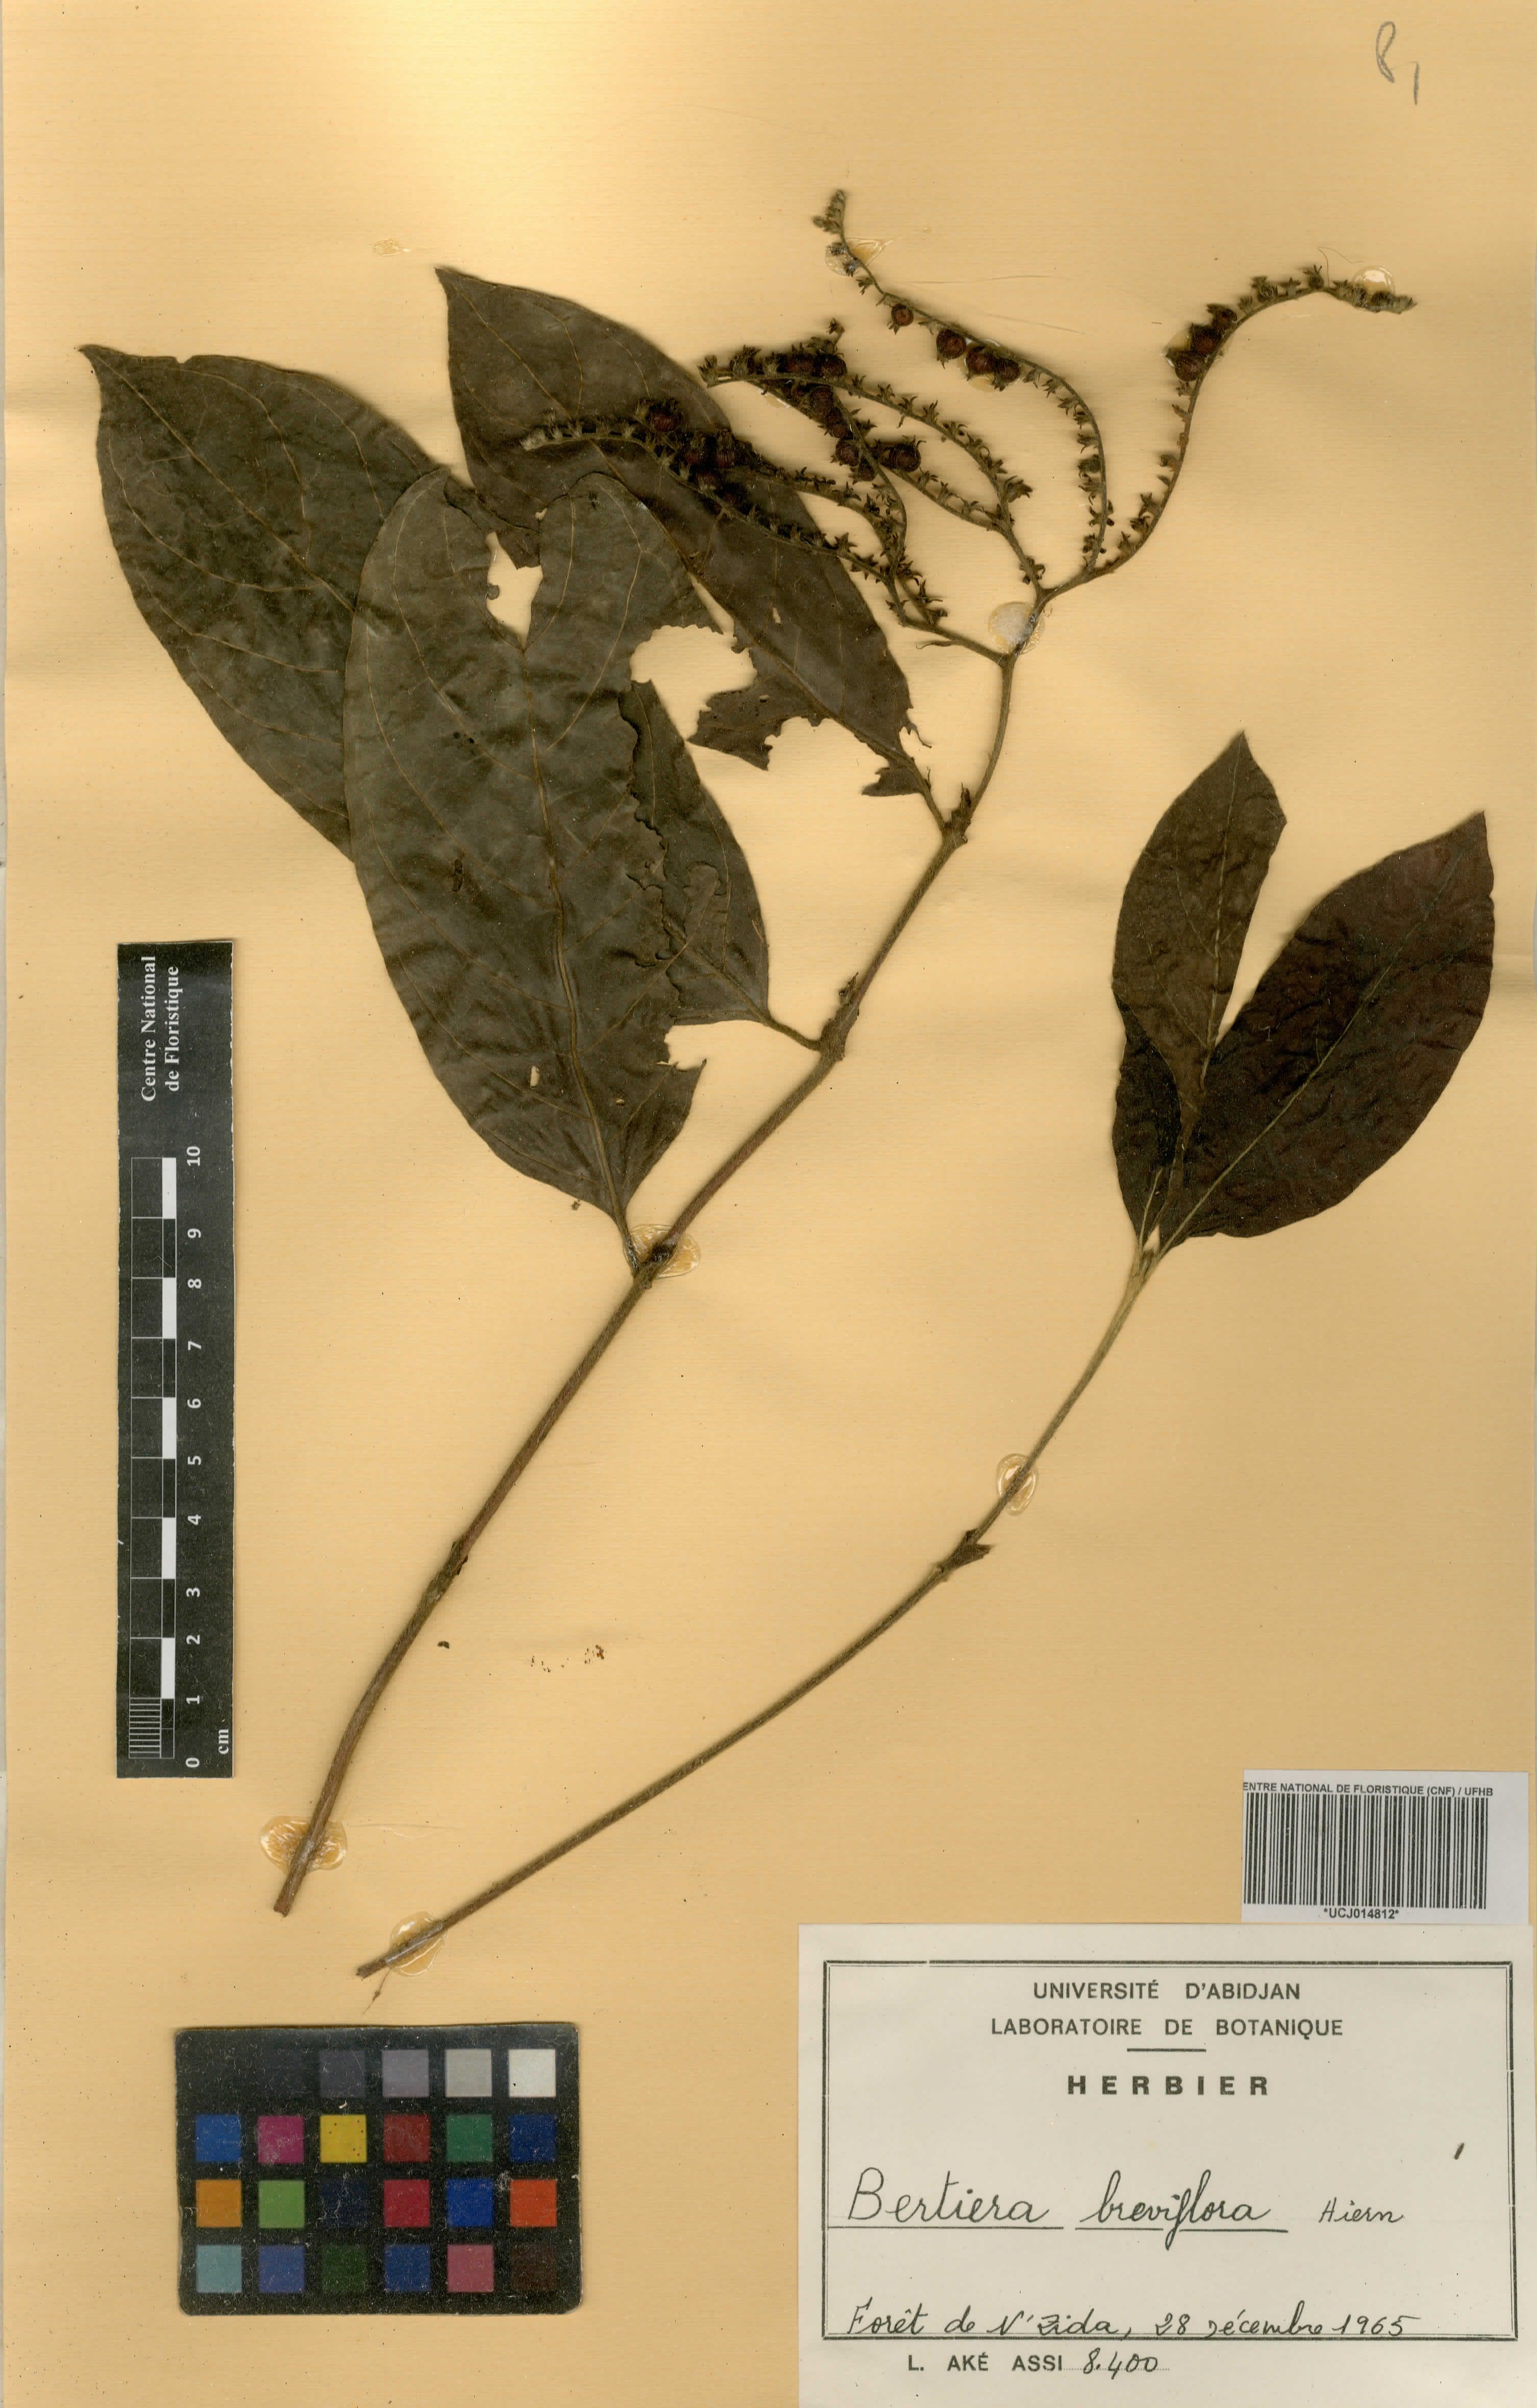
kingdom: Plantae
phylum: Tracheophyta
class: Magnoliopsida
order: Gentianales
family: Rubiaceae
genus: Bertiera
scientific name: Bertiera breviflora
